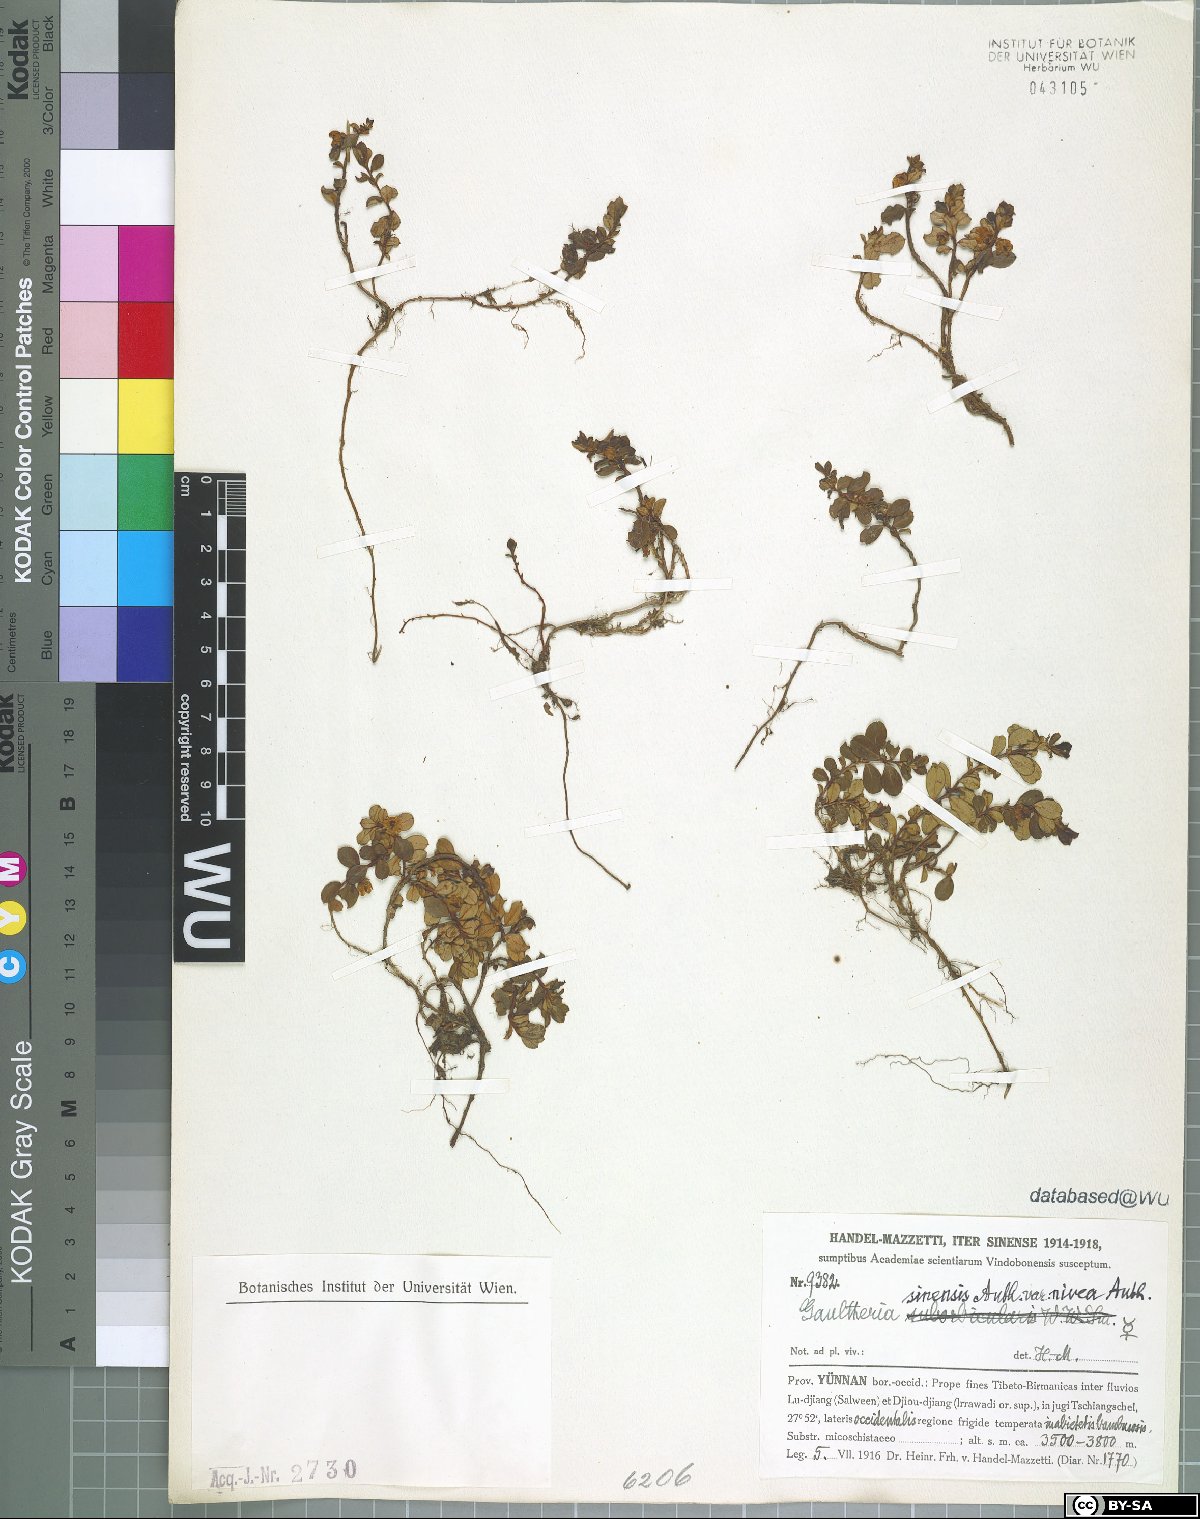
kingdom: Plantae
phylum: Tracheophyta
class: Magnoliopsida
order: Ericales
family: Ericaceae
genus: Gaultheria
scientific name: Gaultheria nivea
